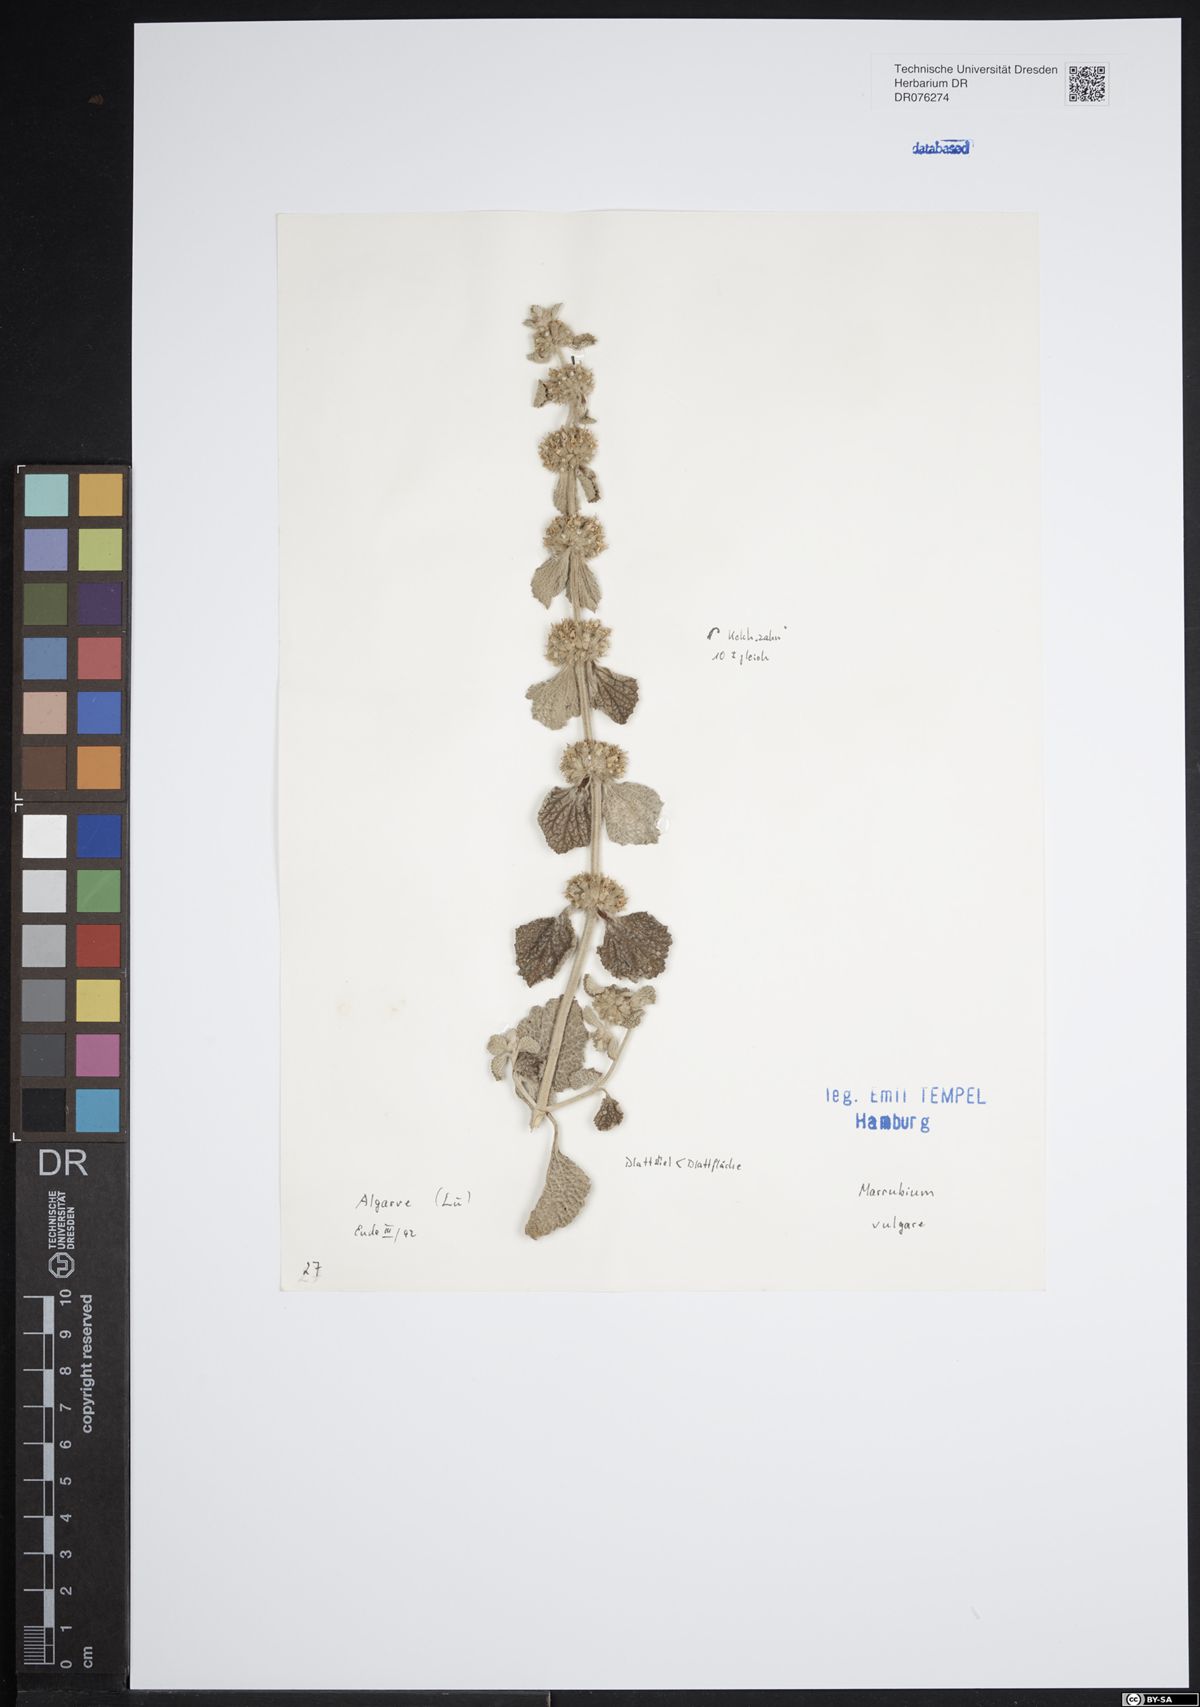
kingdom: Plantae
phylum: Tracheophyta
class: Magnoliopsida
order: Lamiales
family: Lamiaceae
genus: Marrubium
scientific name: Marrubium vulgare
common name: Horehound
